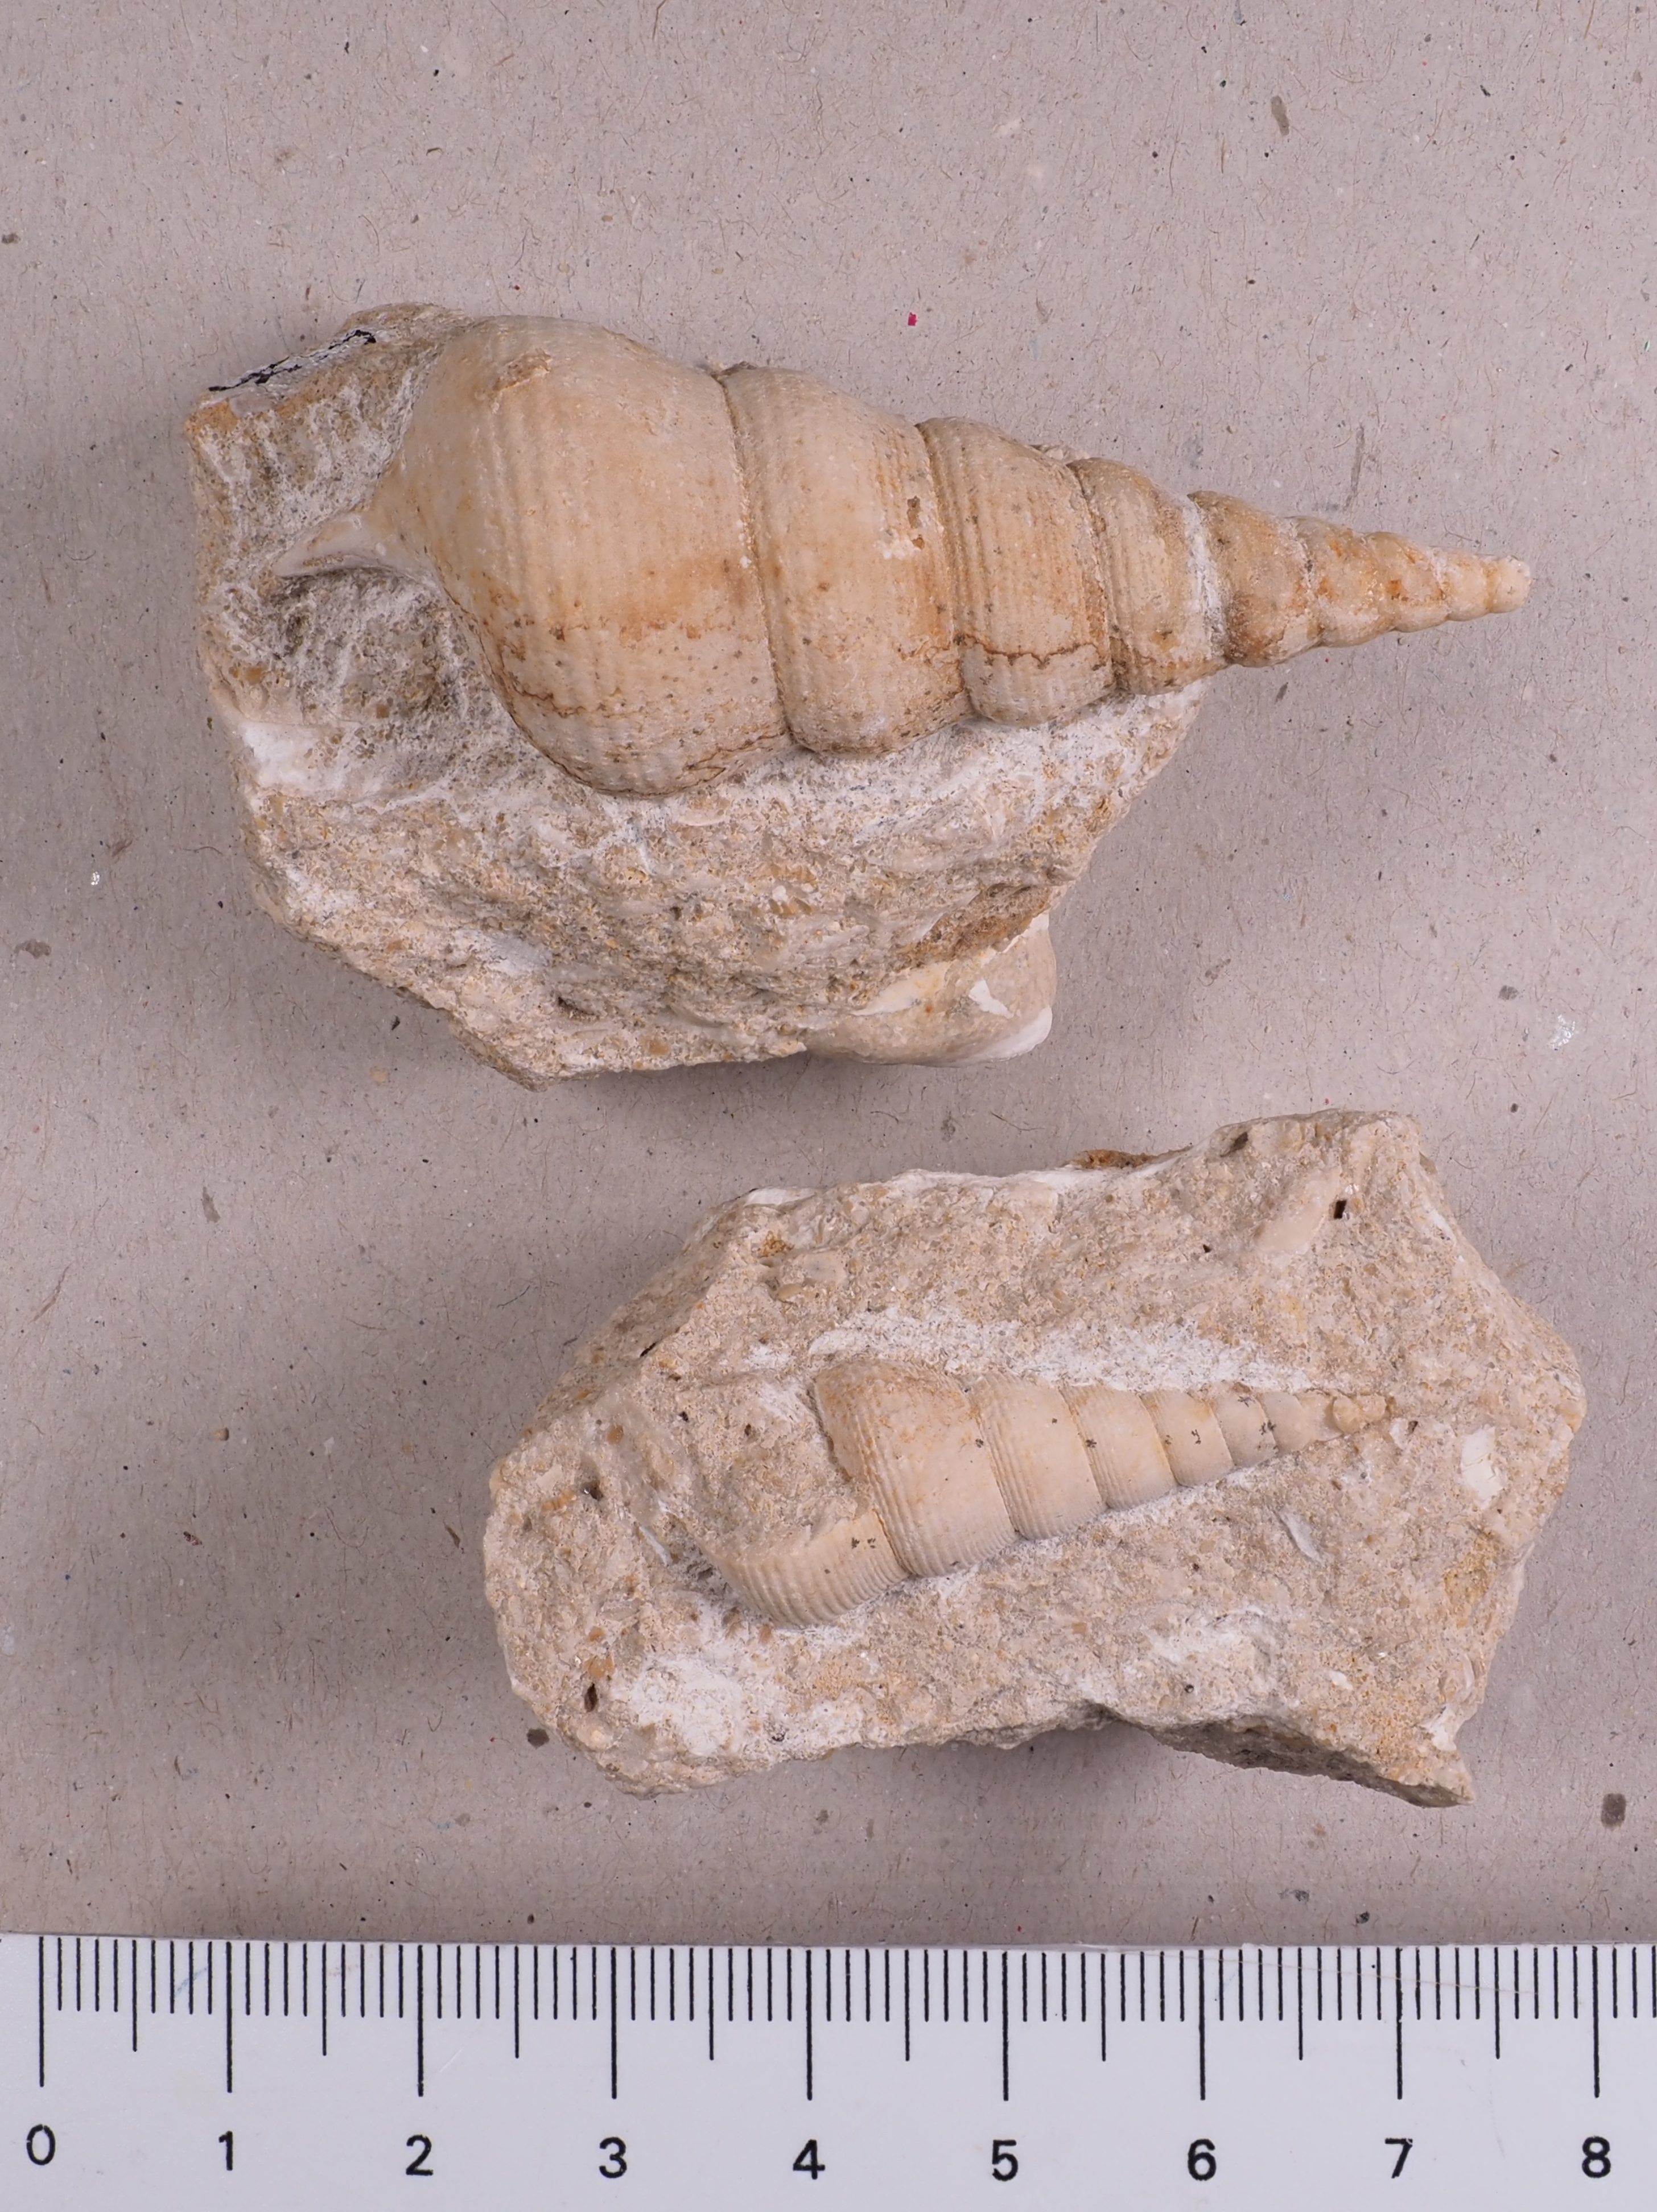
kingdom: Animalia
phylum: Mollusca
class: Gastropoda
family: Pseudomelaniidae
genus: Bourgetia
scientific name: Bourgetia Turritella deshayesea
